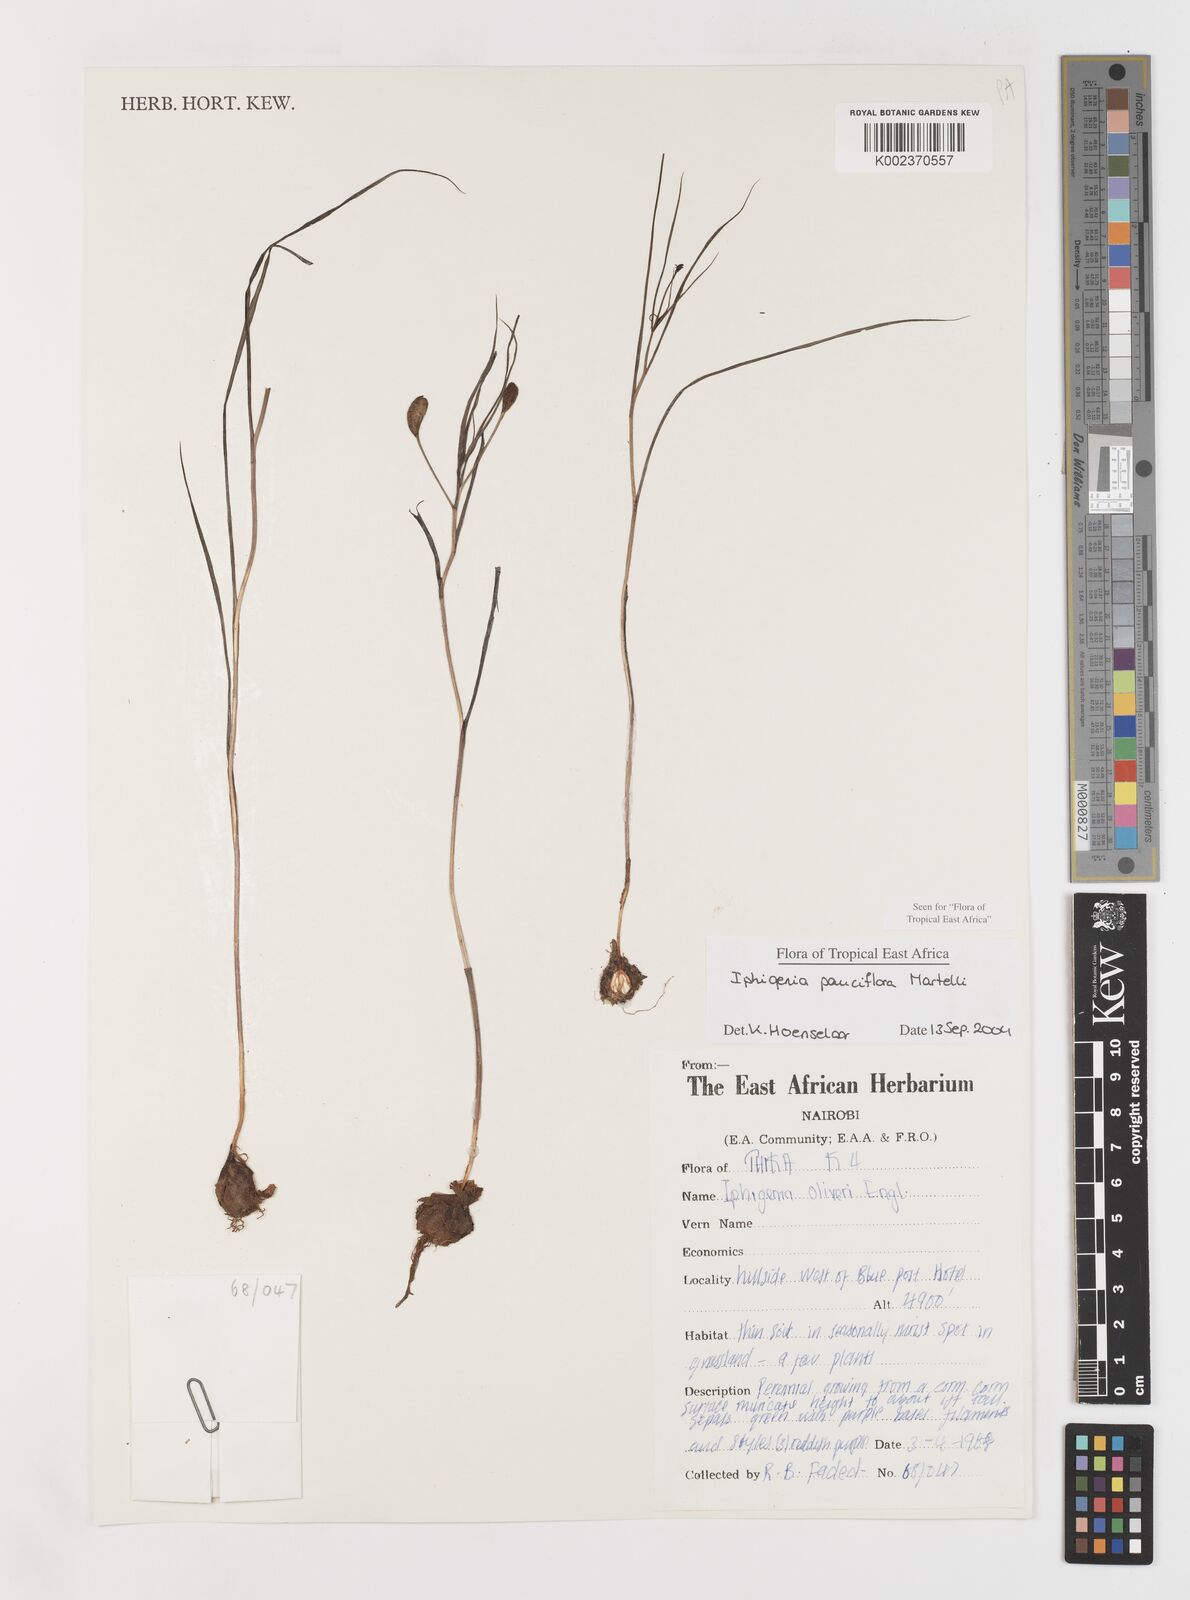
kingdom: Plantae
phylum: Tracheophyta
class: Liliopsida
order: Liliales
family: Colchicaceae
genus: Iphigenia
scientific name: Iphigenia pauciflora
